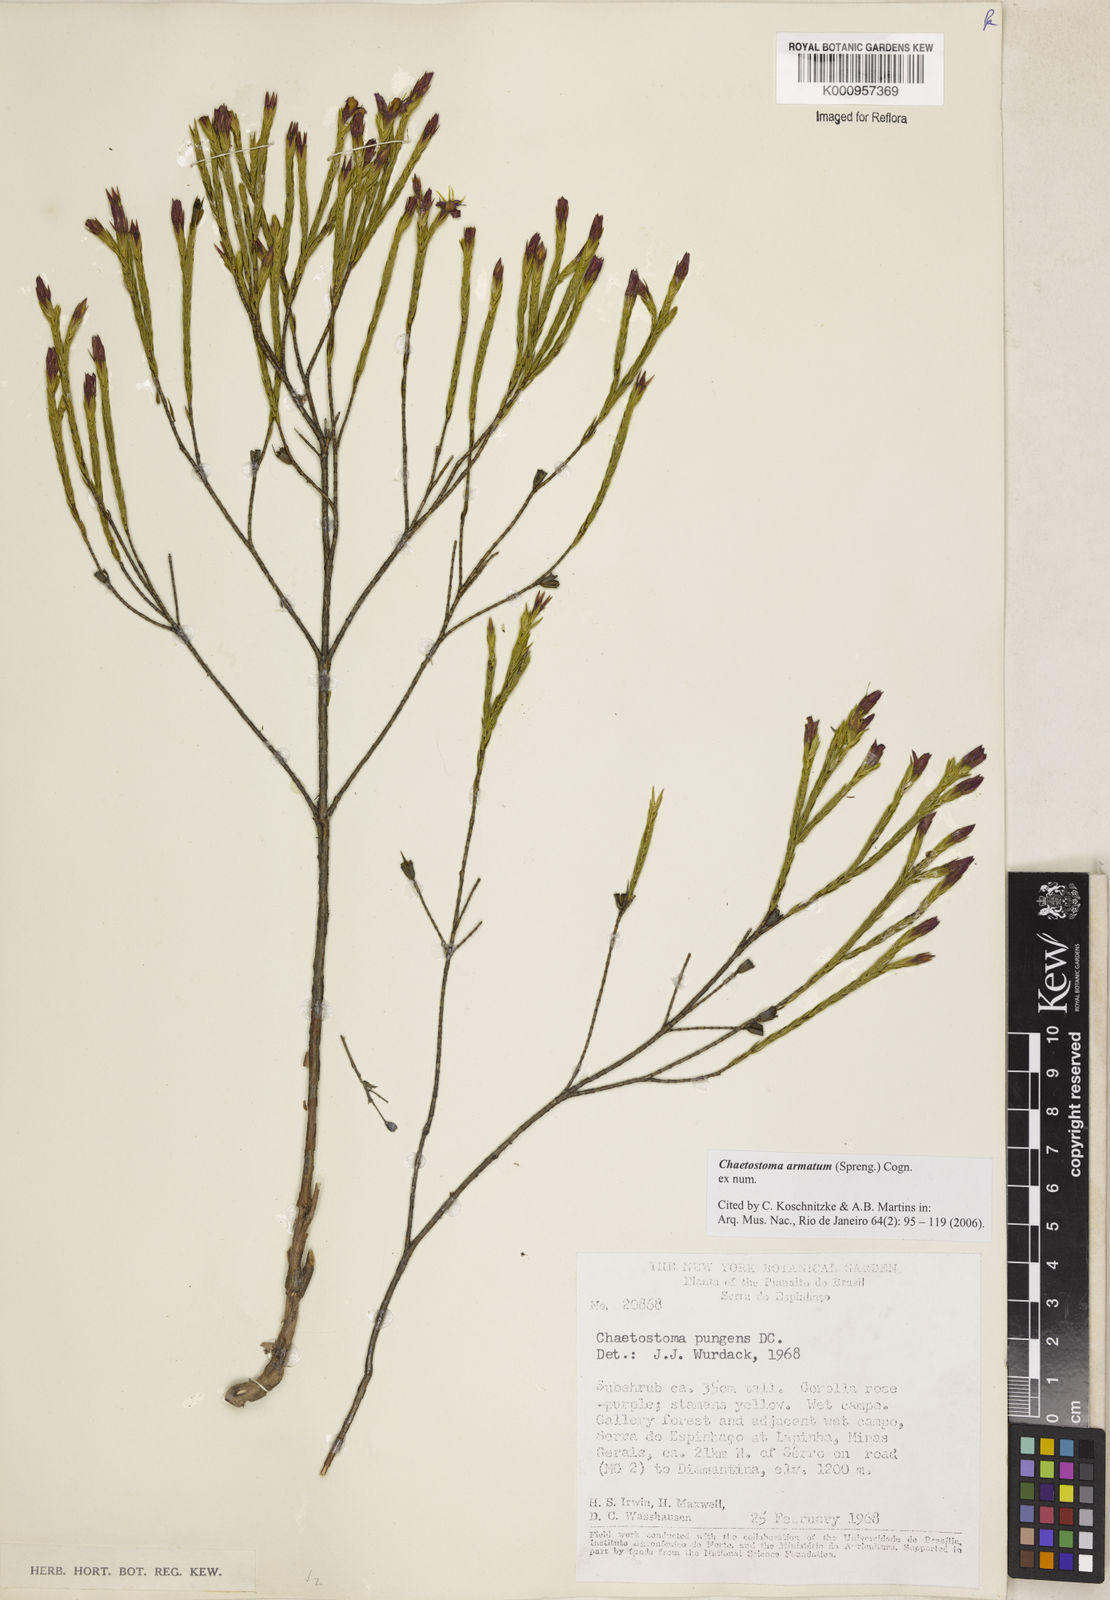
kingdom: Plantae
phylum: Tracheophyta
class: Magnoliopsida
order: Myrtales
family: Melastomataceae
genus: Microlicia
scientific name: Microlicia armata
